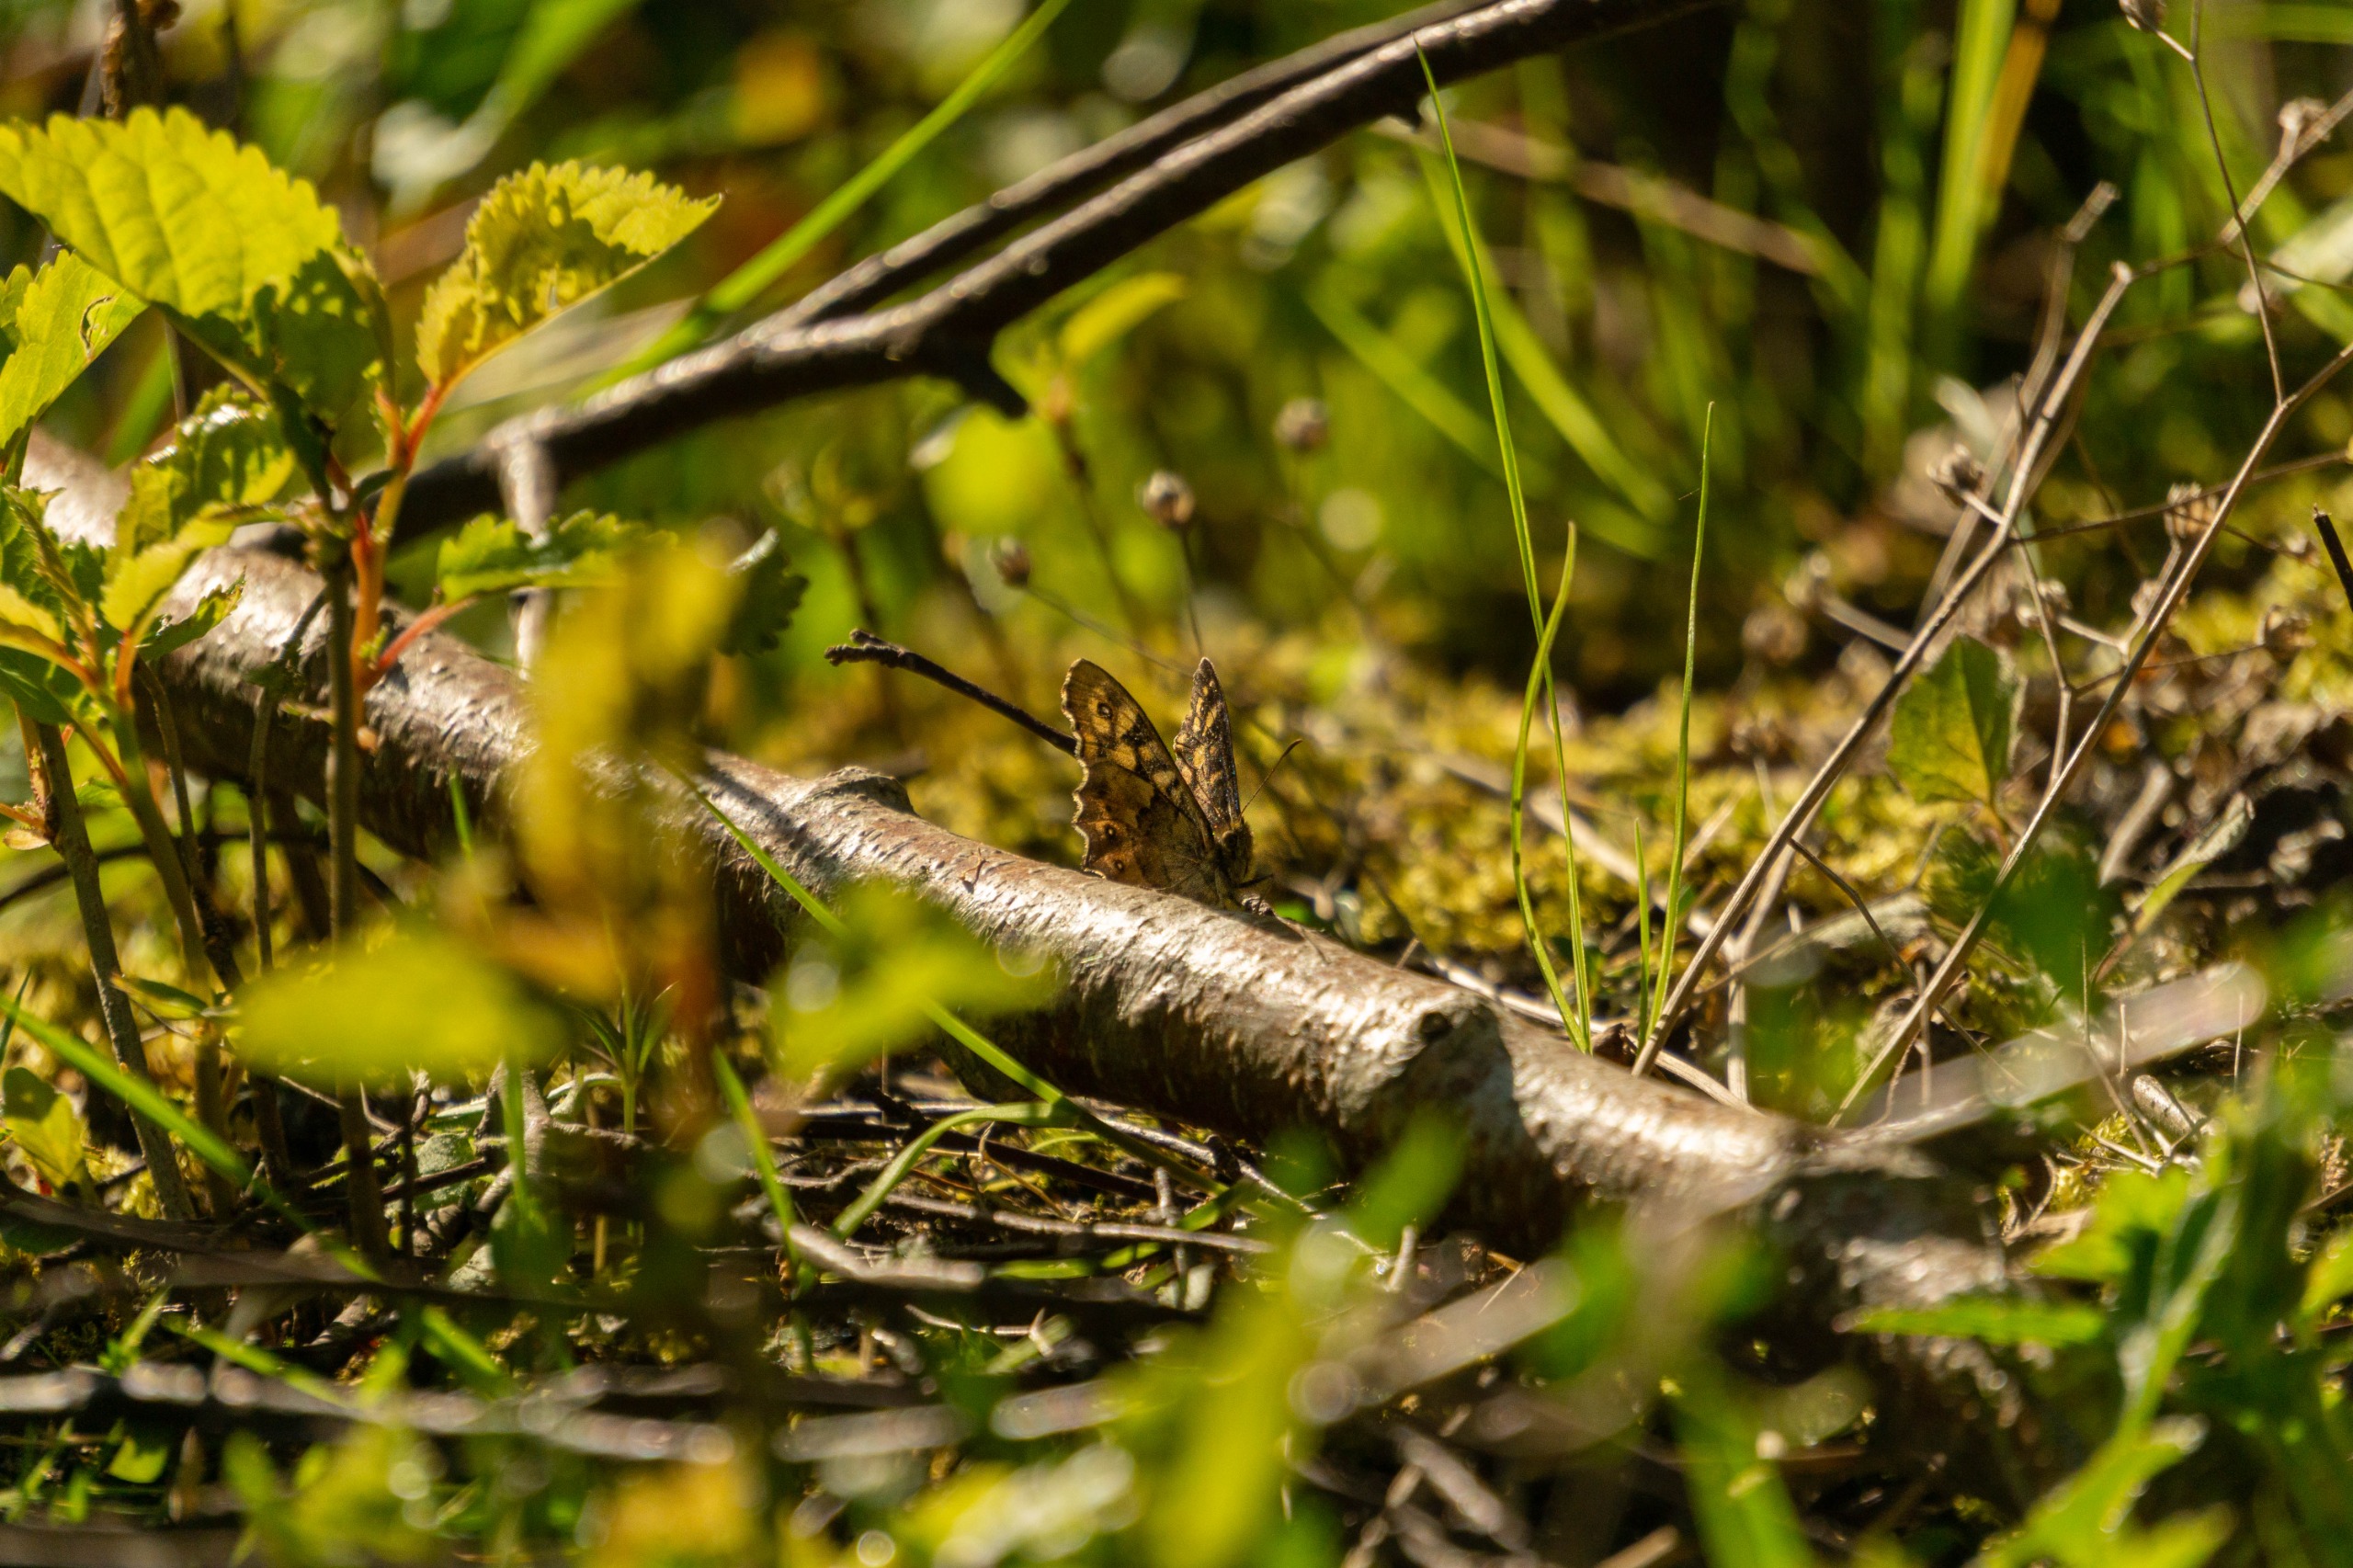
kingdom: Animalia
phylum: Arthropoda
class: Insecta
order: Lepidoptera
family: Nymphalidae
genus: Pararge
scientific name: Pararge aegeria
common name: Skovrandøje
